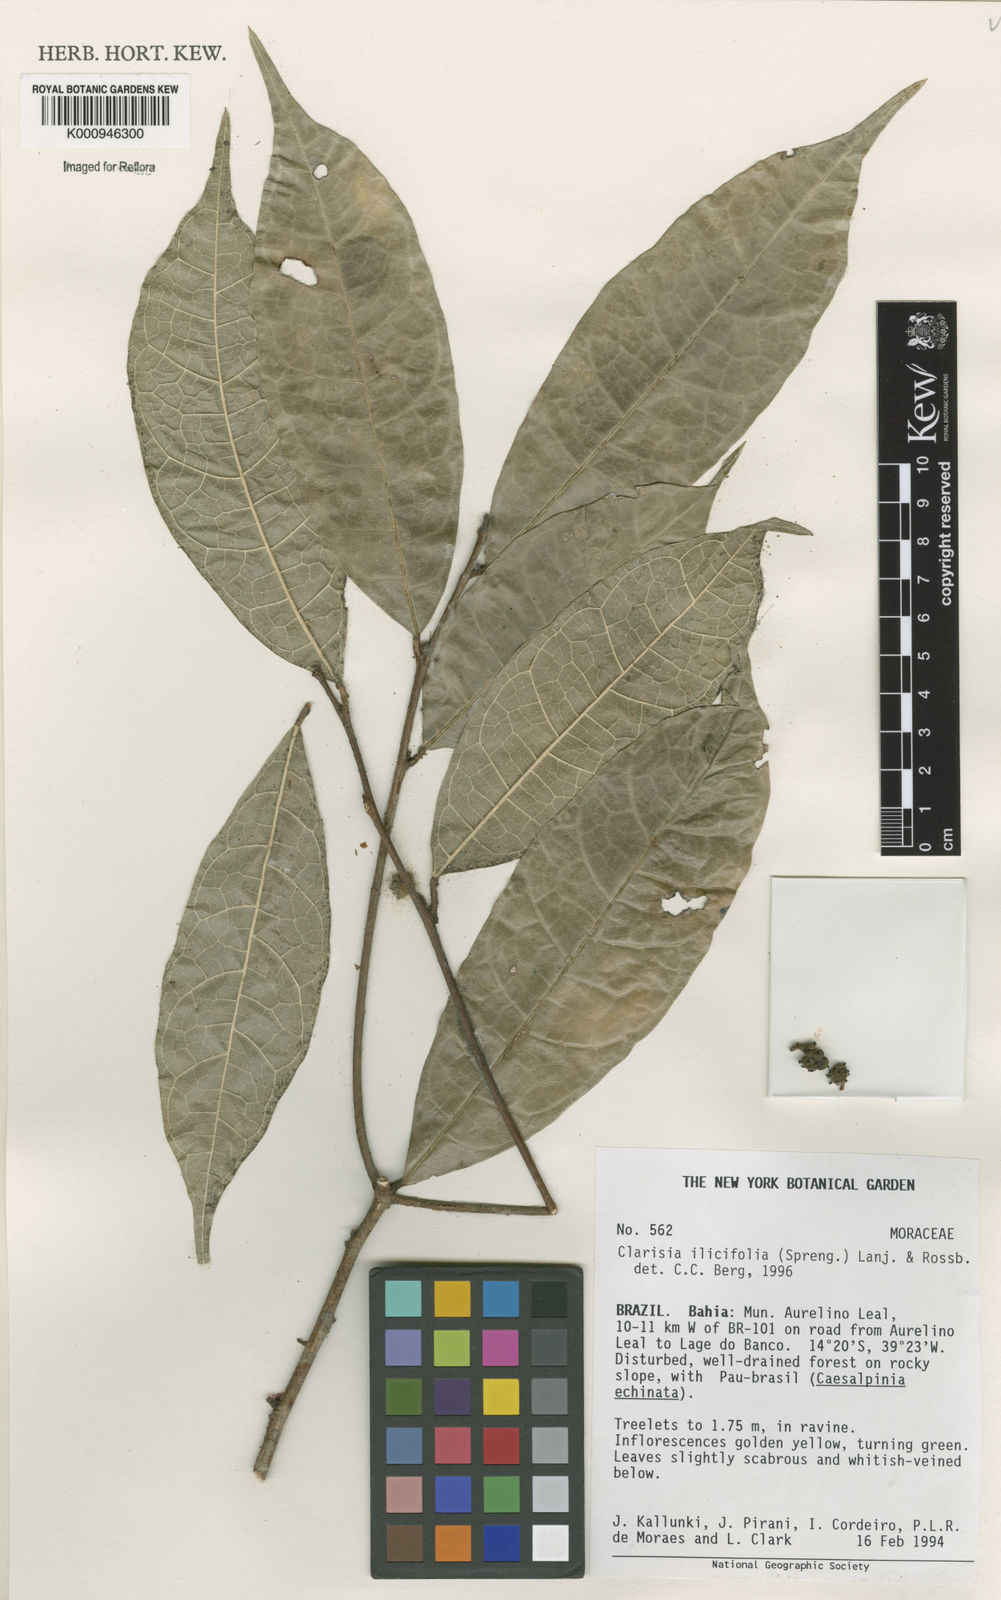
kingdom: Plantae
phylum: Tracheophyta
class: Magnoliopsida
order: Rosales
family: Moraceae
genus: Clarisia
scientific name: Clarisia ilicifolia
